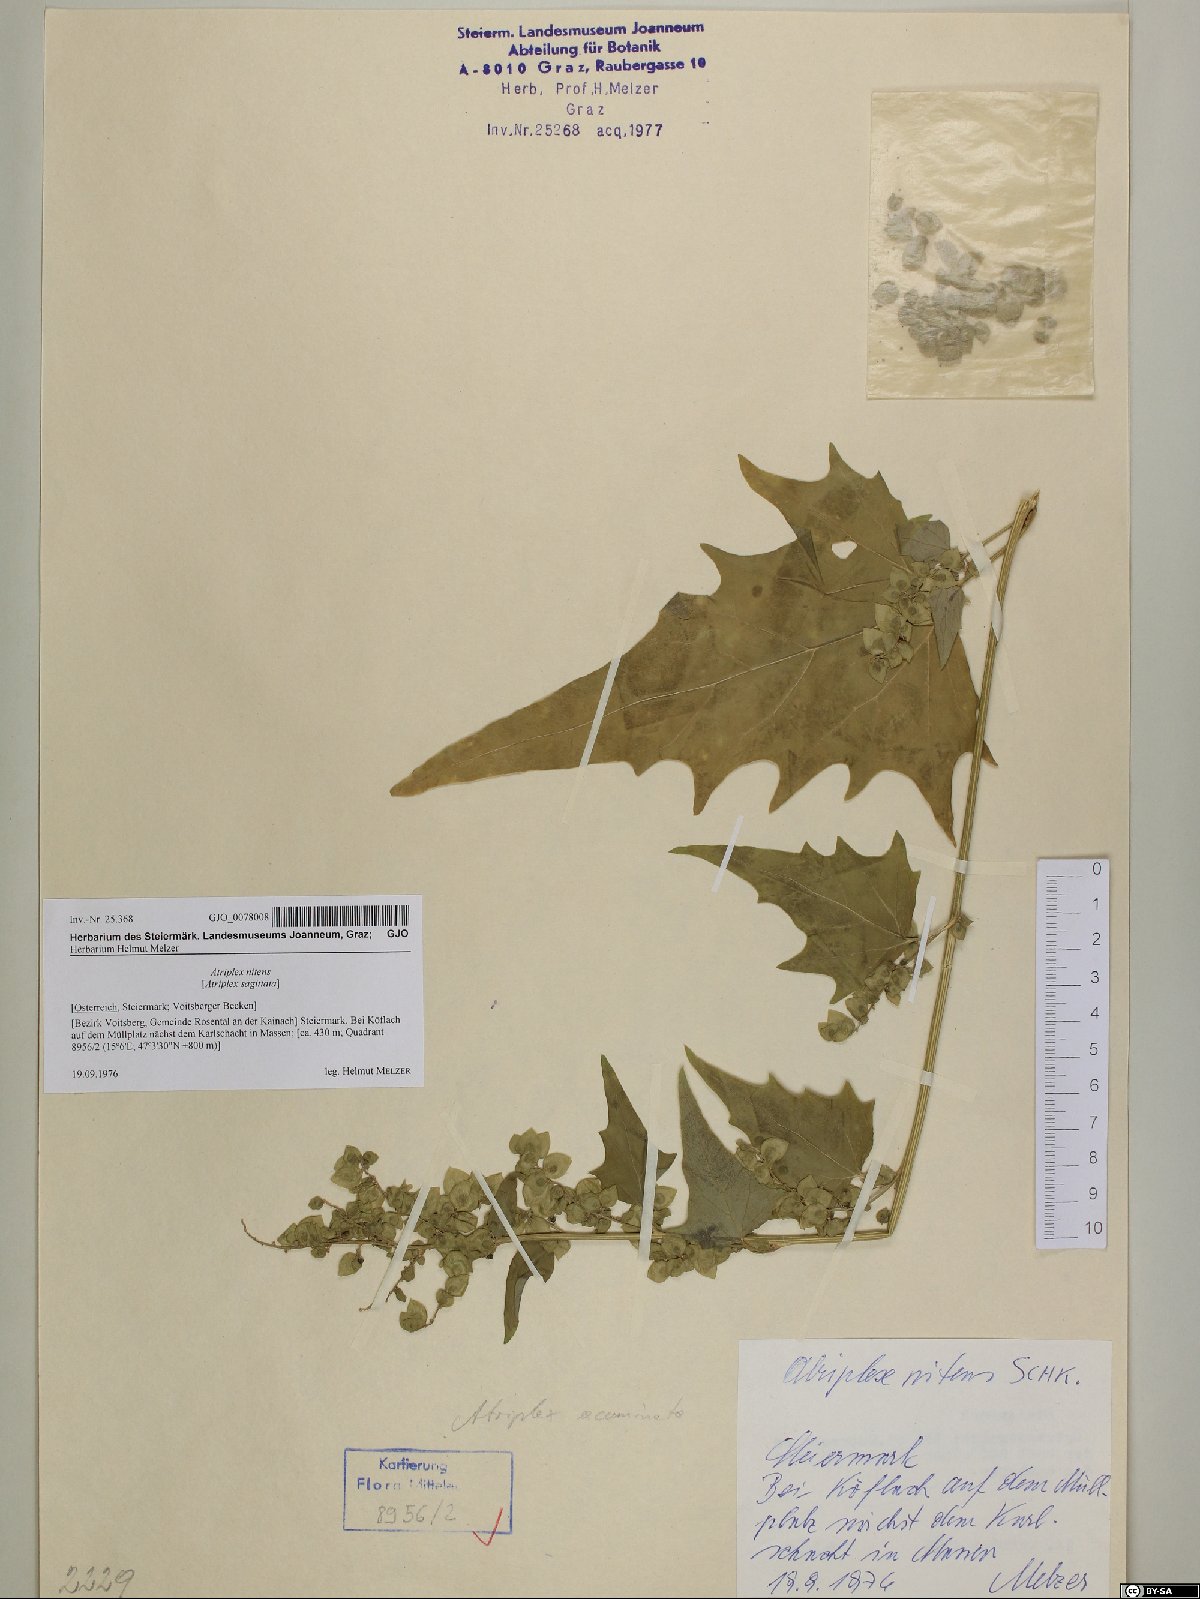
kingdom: Plantae
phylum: Tracheophyta
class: Magnoliopsida
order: Caryophyllales
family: Amaranthaceae
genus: Atriplex
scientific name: Atriplex sagittata
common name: Purple orache
